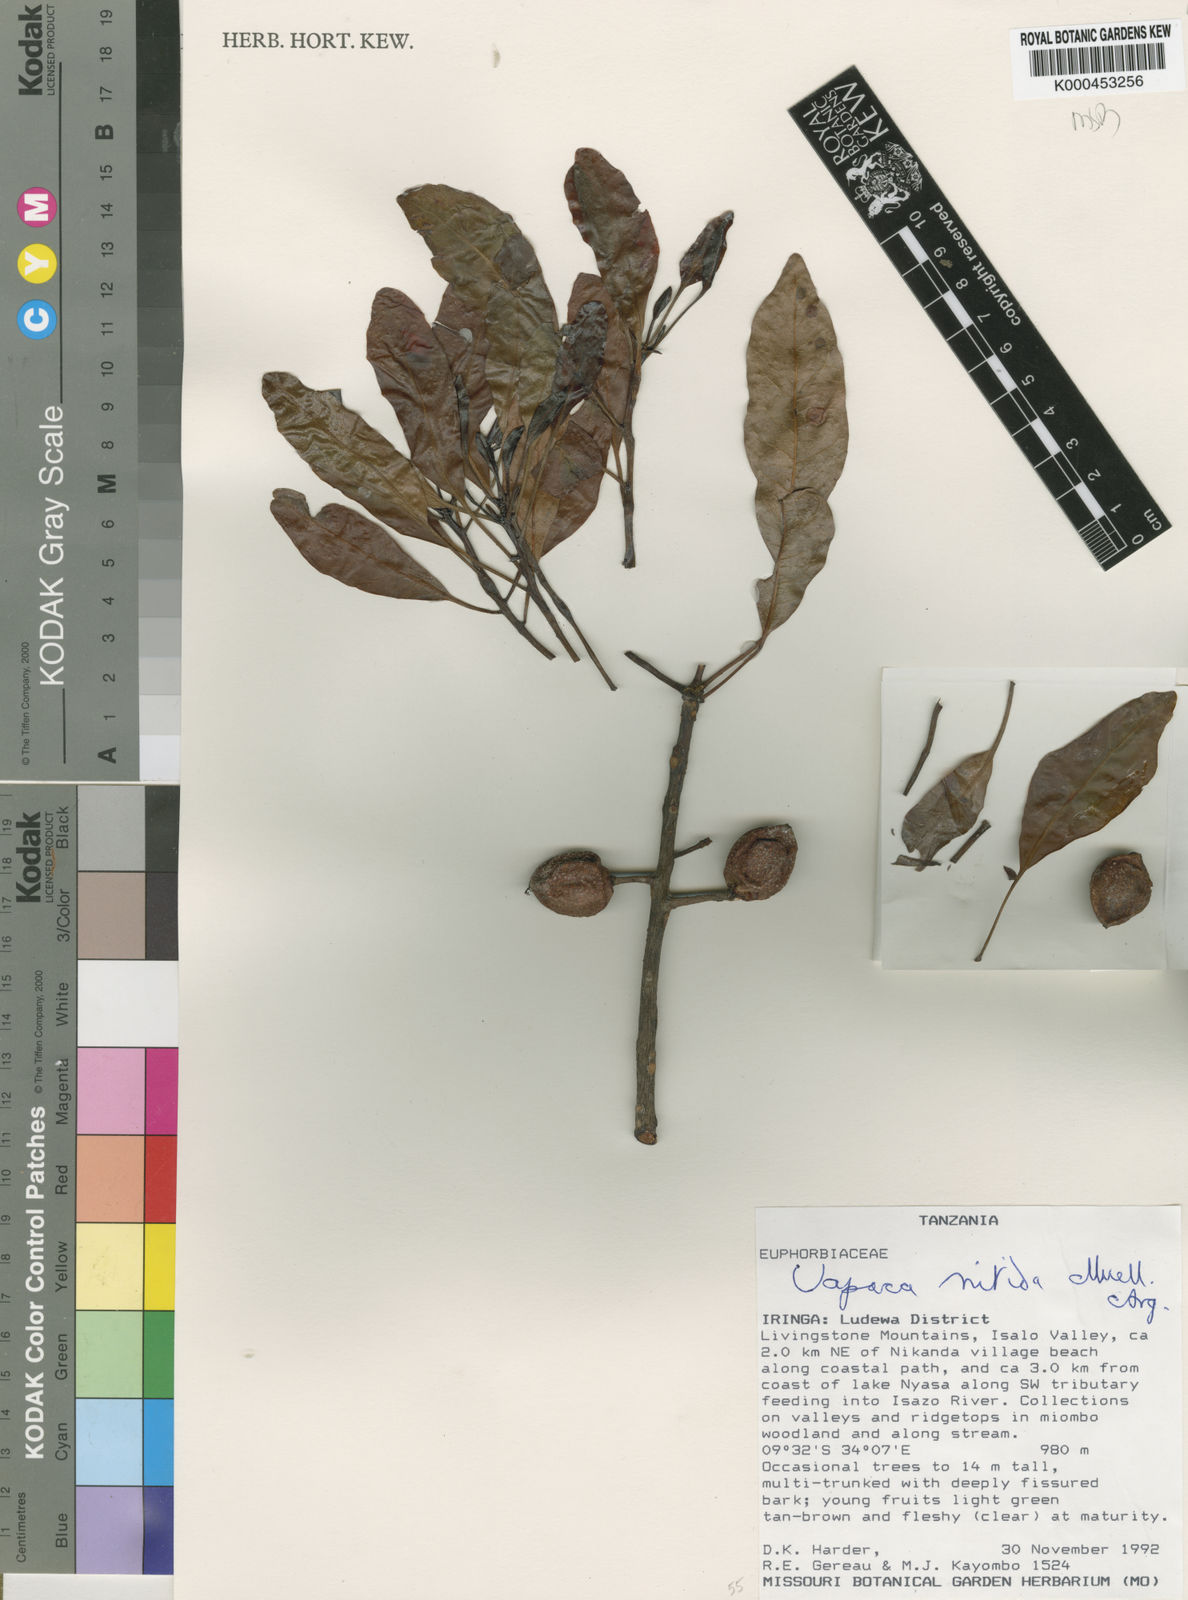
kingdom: Plantae
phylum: Tracheophyta
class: Magnoliopsida
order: Malpighiales
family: Phyllanthaceae
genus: Uapaca
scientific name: Uapaca
